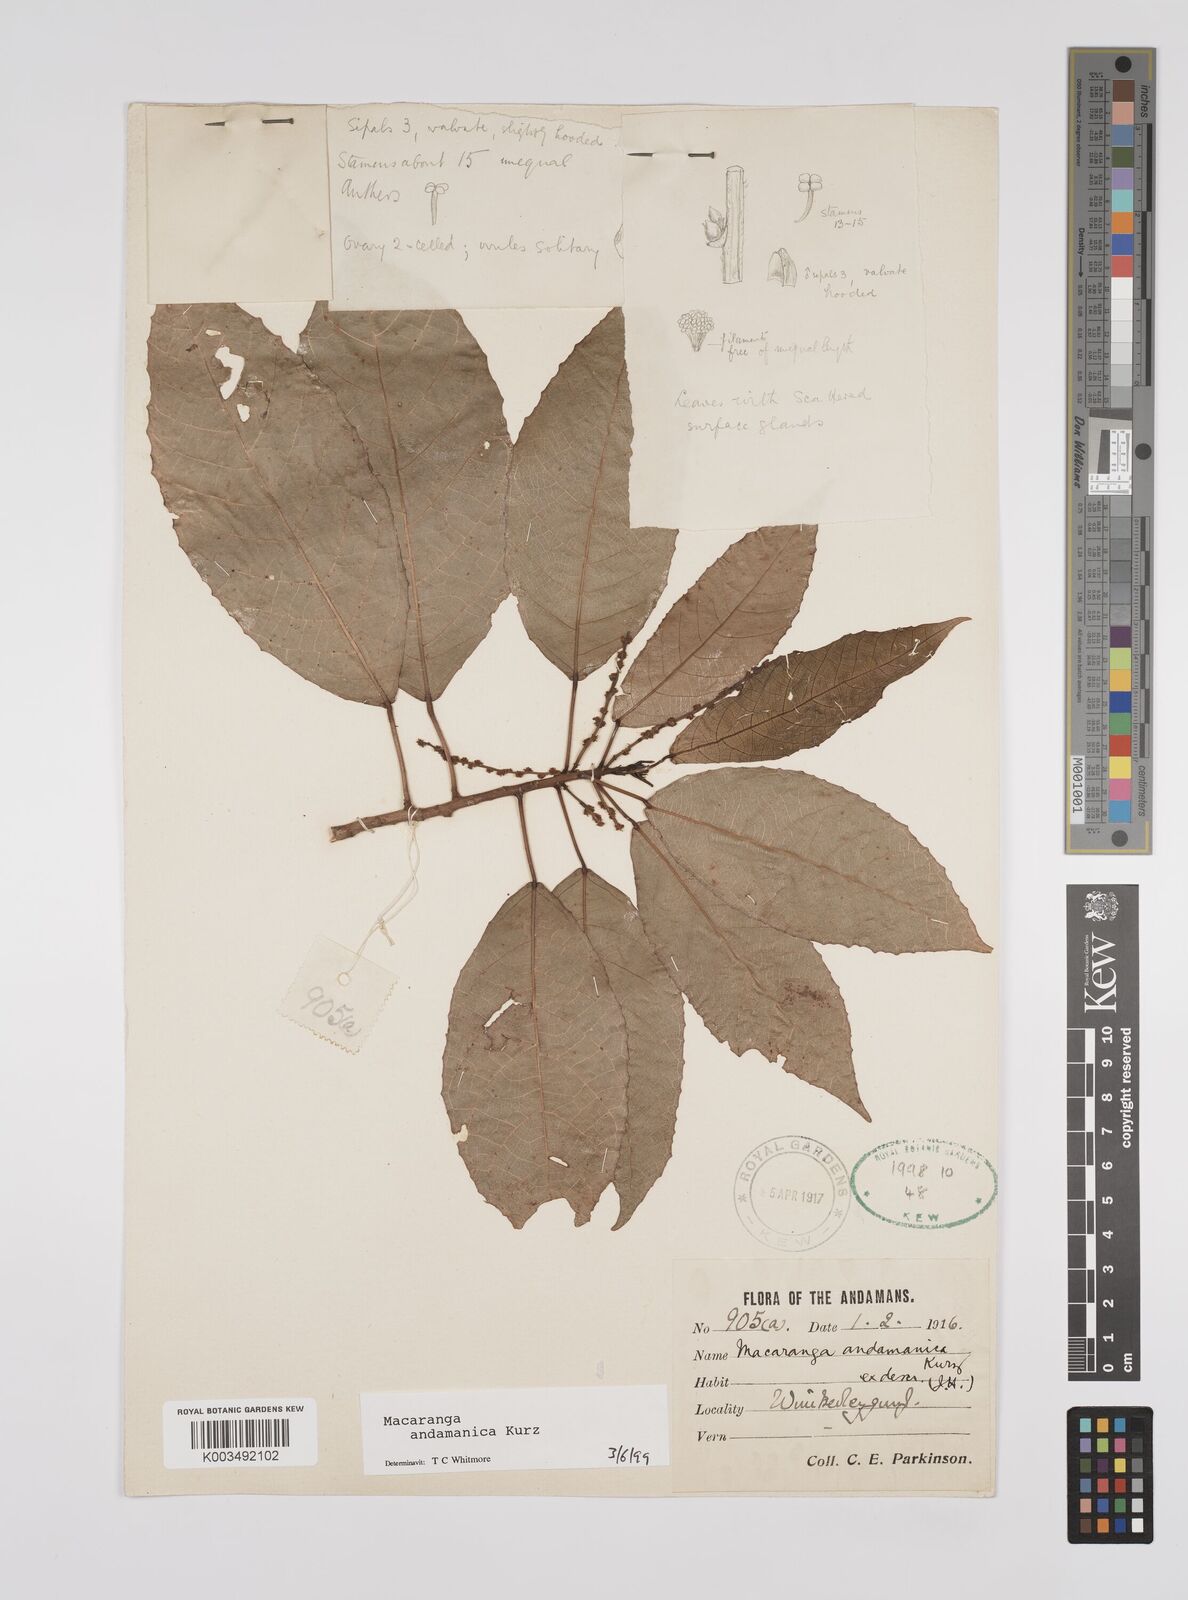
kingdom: Plantae
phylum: Tracheophyta
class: Magnoliopsida
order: Malpighiales
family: Euphorbiaceae
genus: Macaranga
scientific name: Macaranga andamanica
